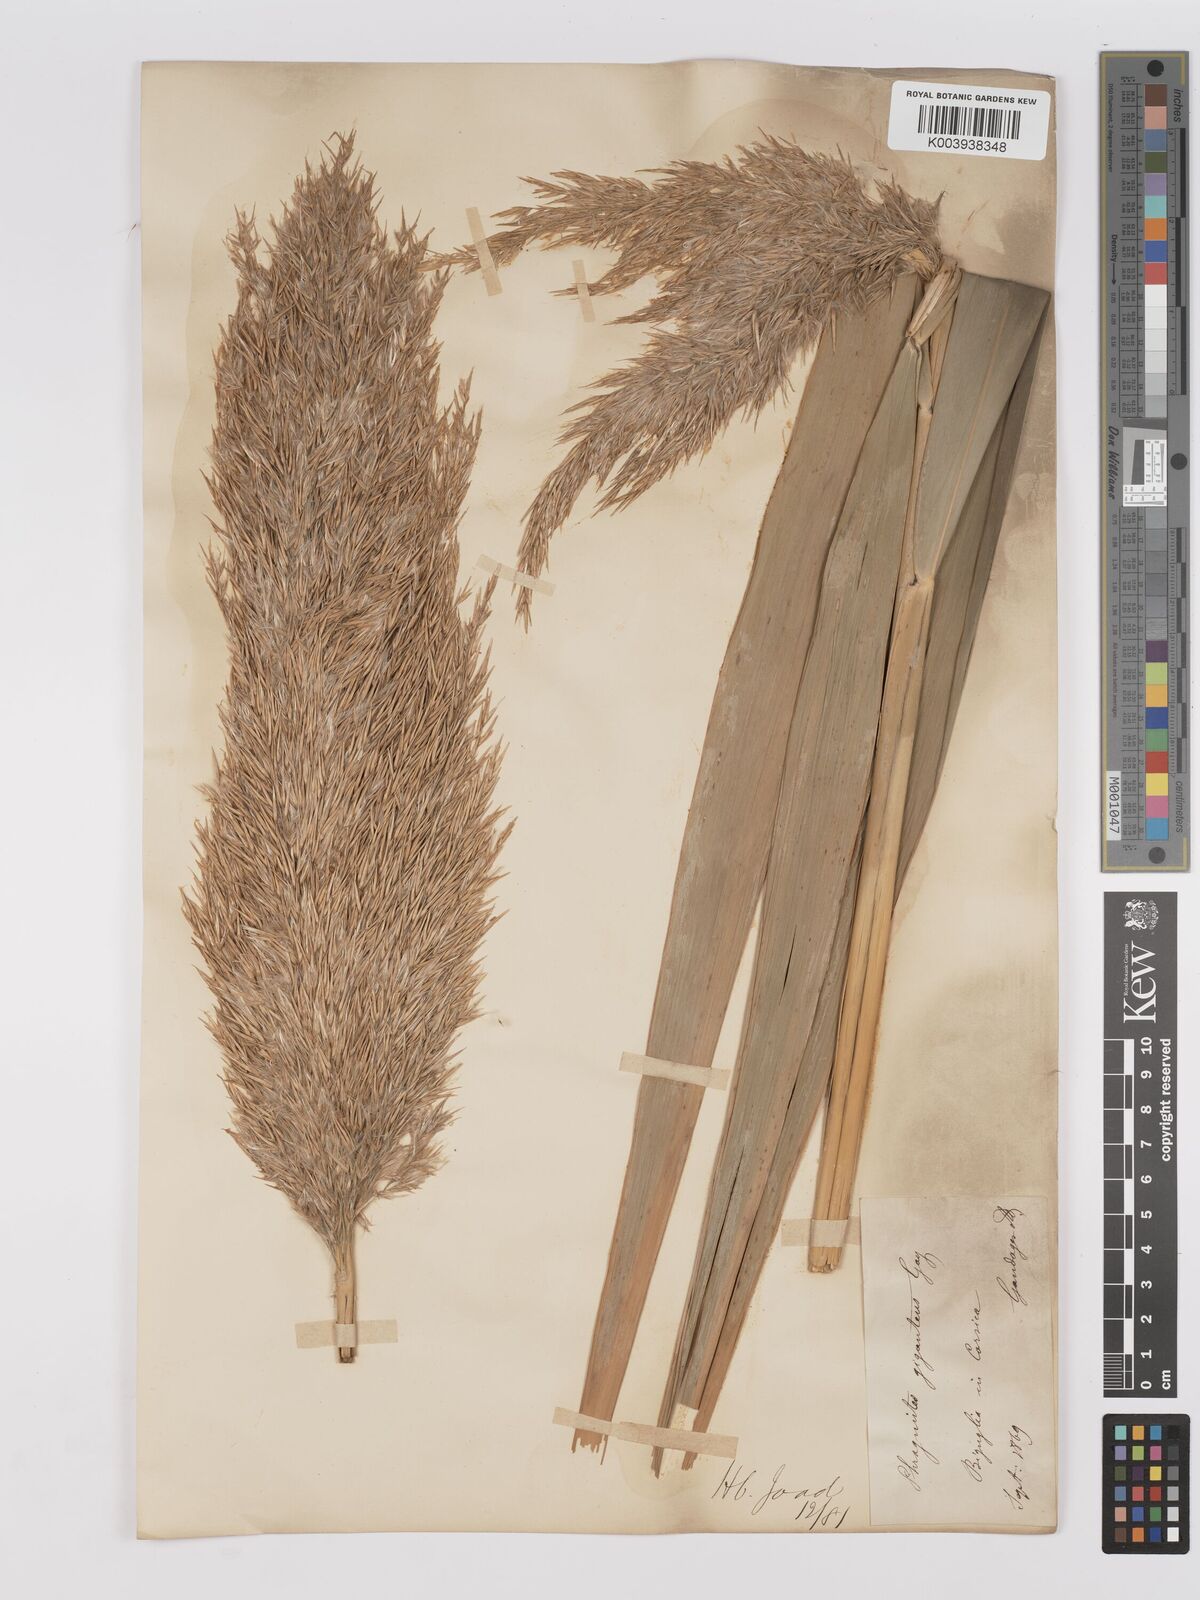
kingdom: Plantae
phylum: Tracheophyta
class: Liliopsida
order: Poales
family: Poaceae
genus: Phragmites
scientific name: Phragmites australis
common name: Common reed
